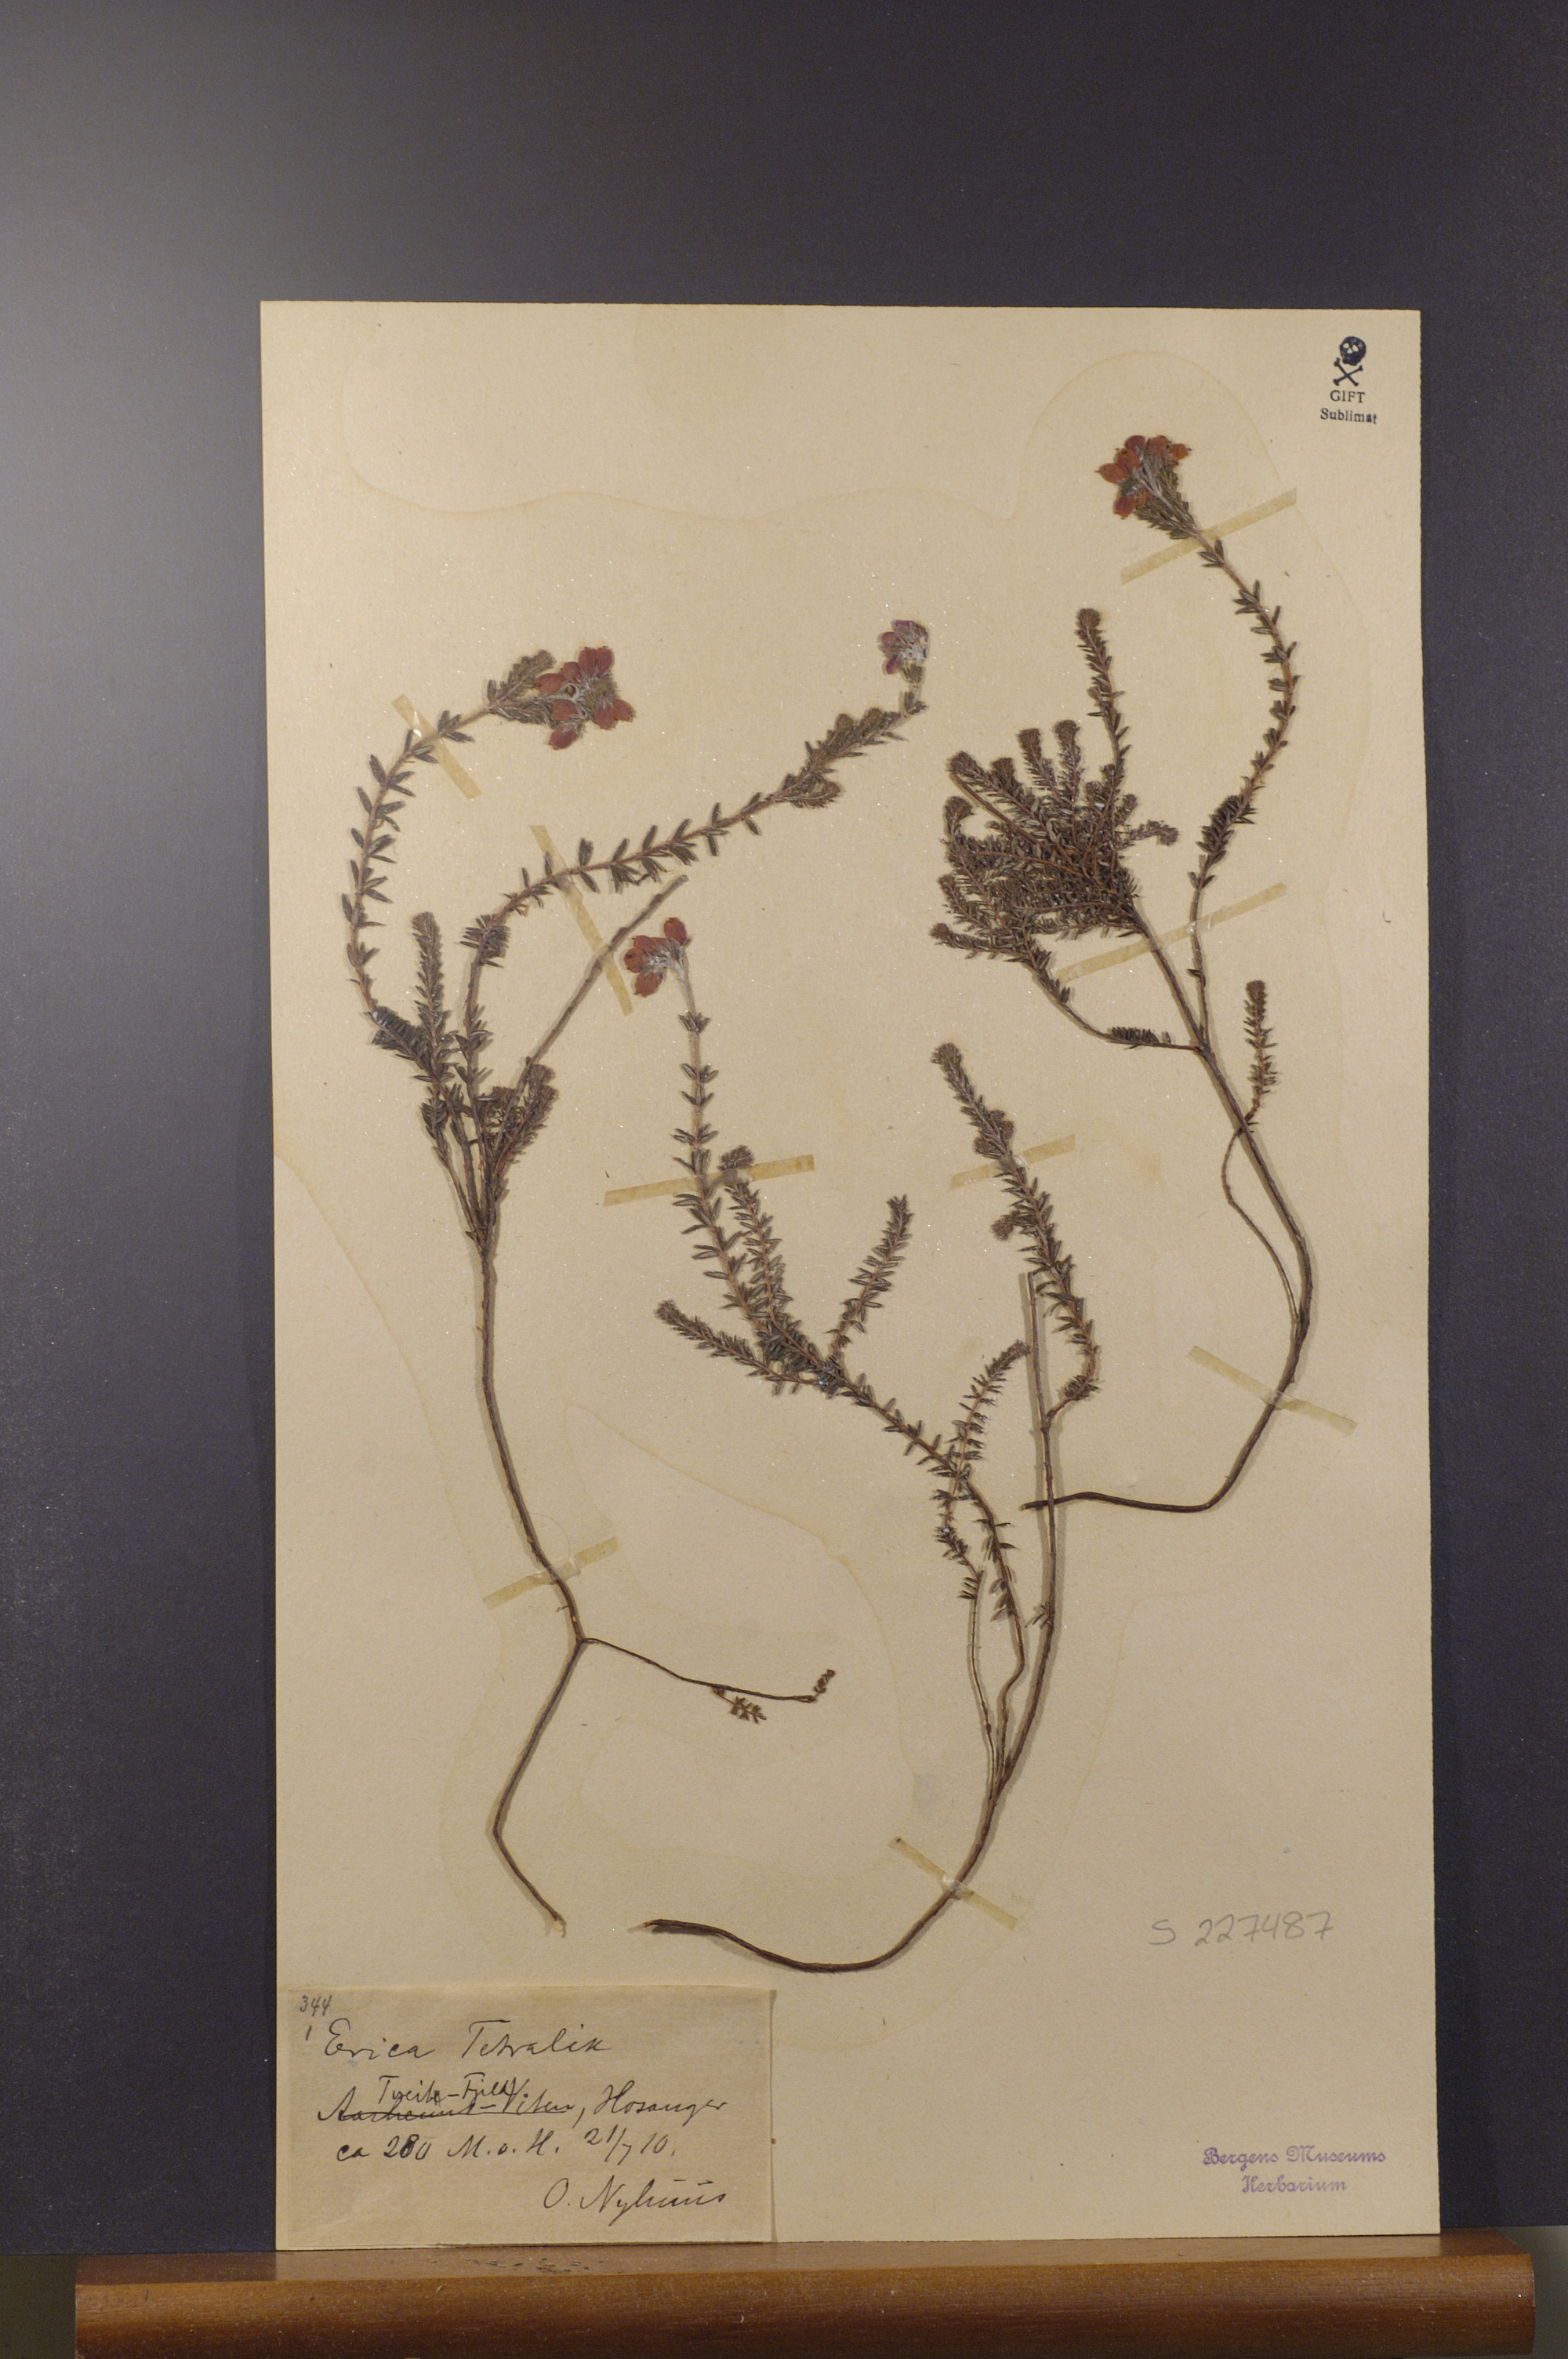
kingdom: Plantae
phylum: Tracheophyta
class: Magnoliopsida
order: Ericales
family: Ericaceae
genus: Erica
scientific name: Erica tetralix
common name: Cross-leaved heath
